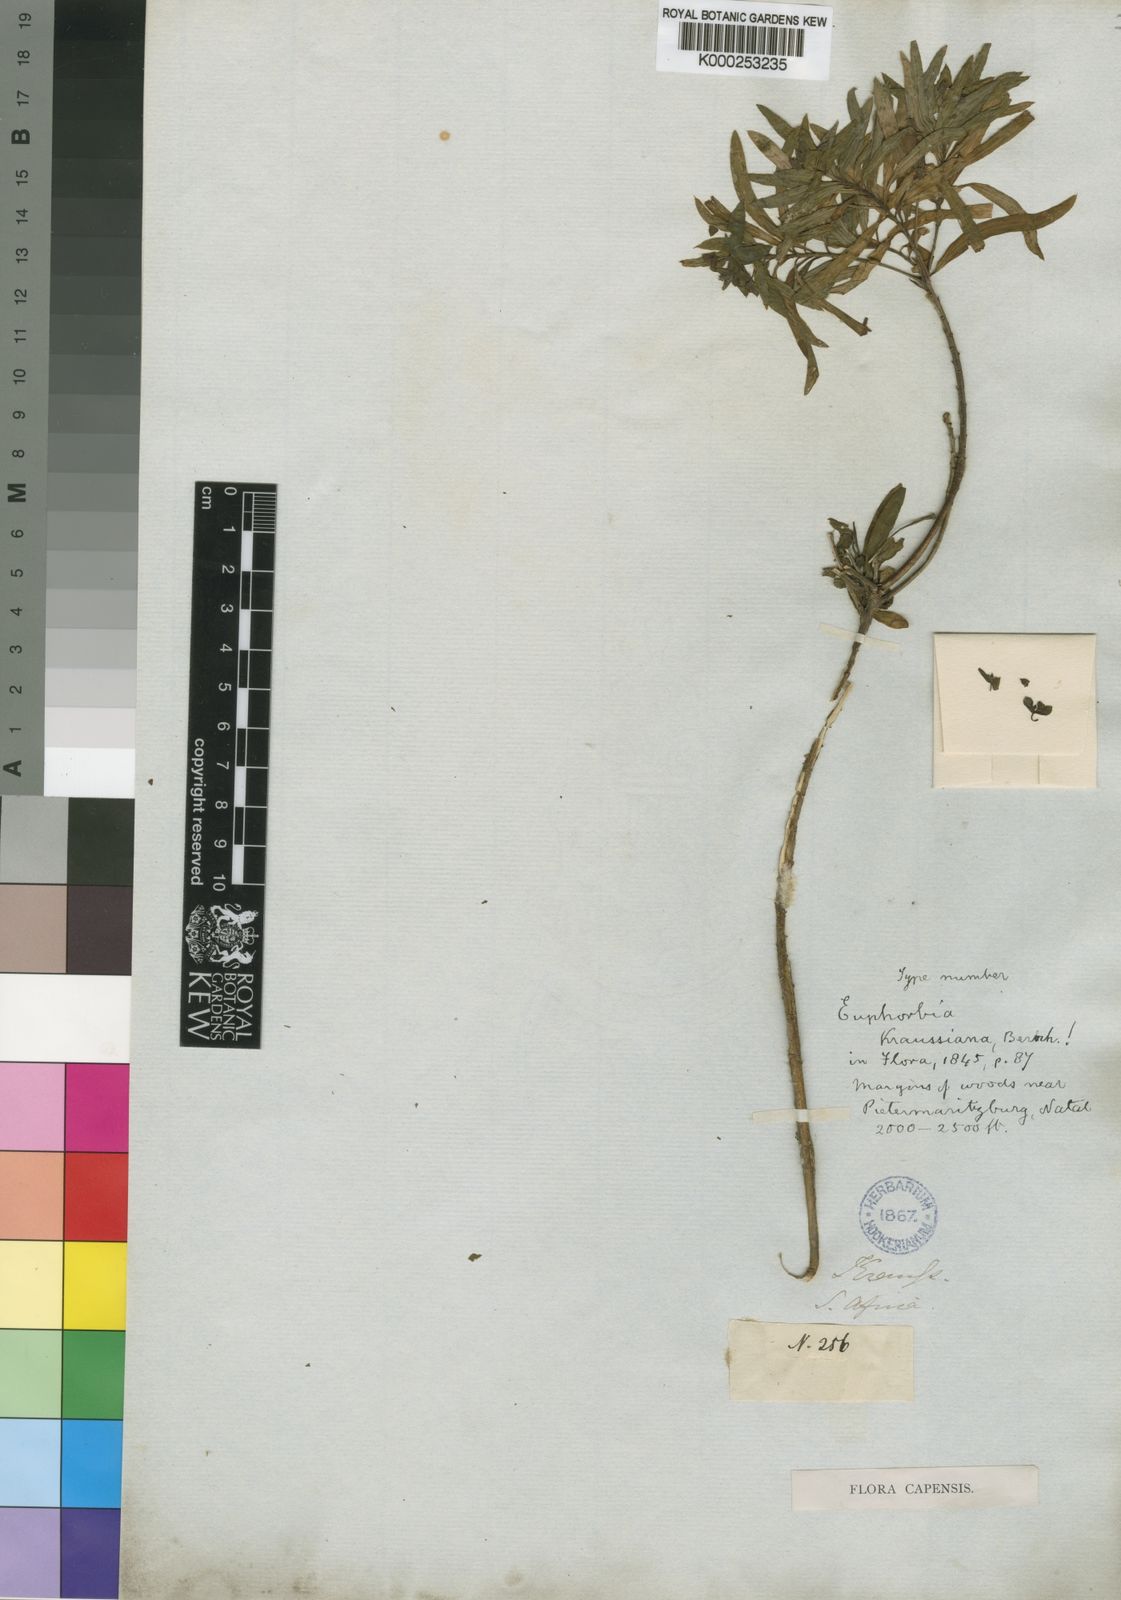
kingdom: Plantae
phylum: Tracheophyta
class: Magnoliopsida
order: Malpighiales
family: Euphorbiaceae
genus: Euphorbia
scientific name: Euphorbia kraussiana
